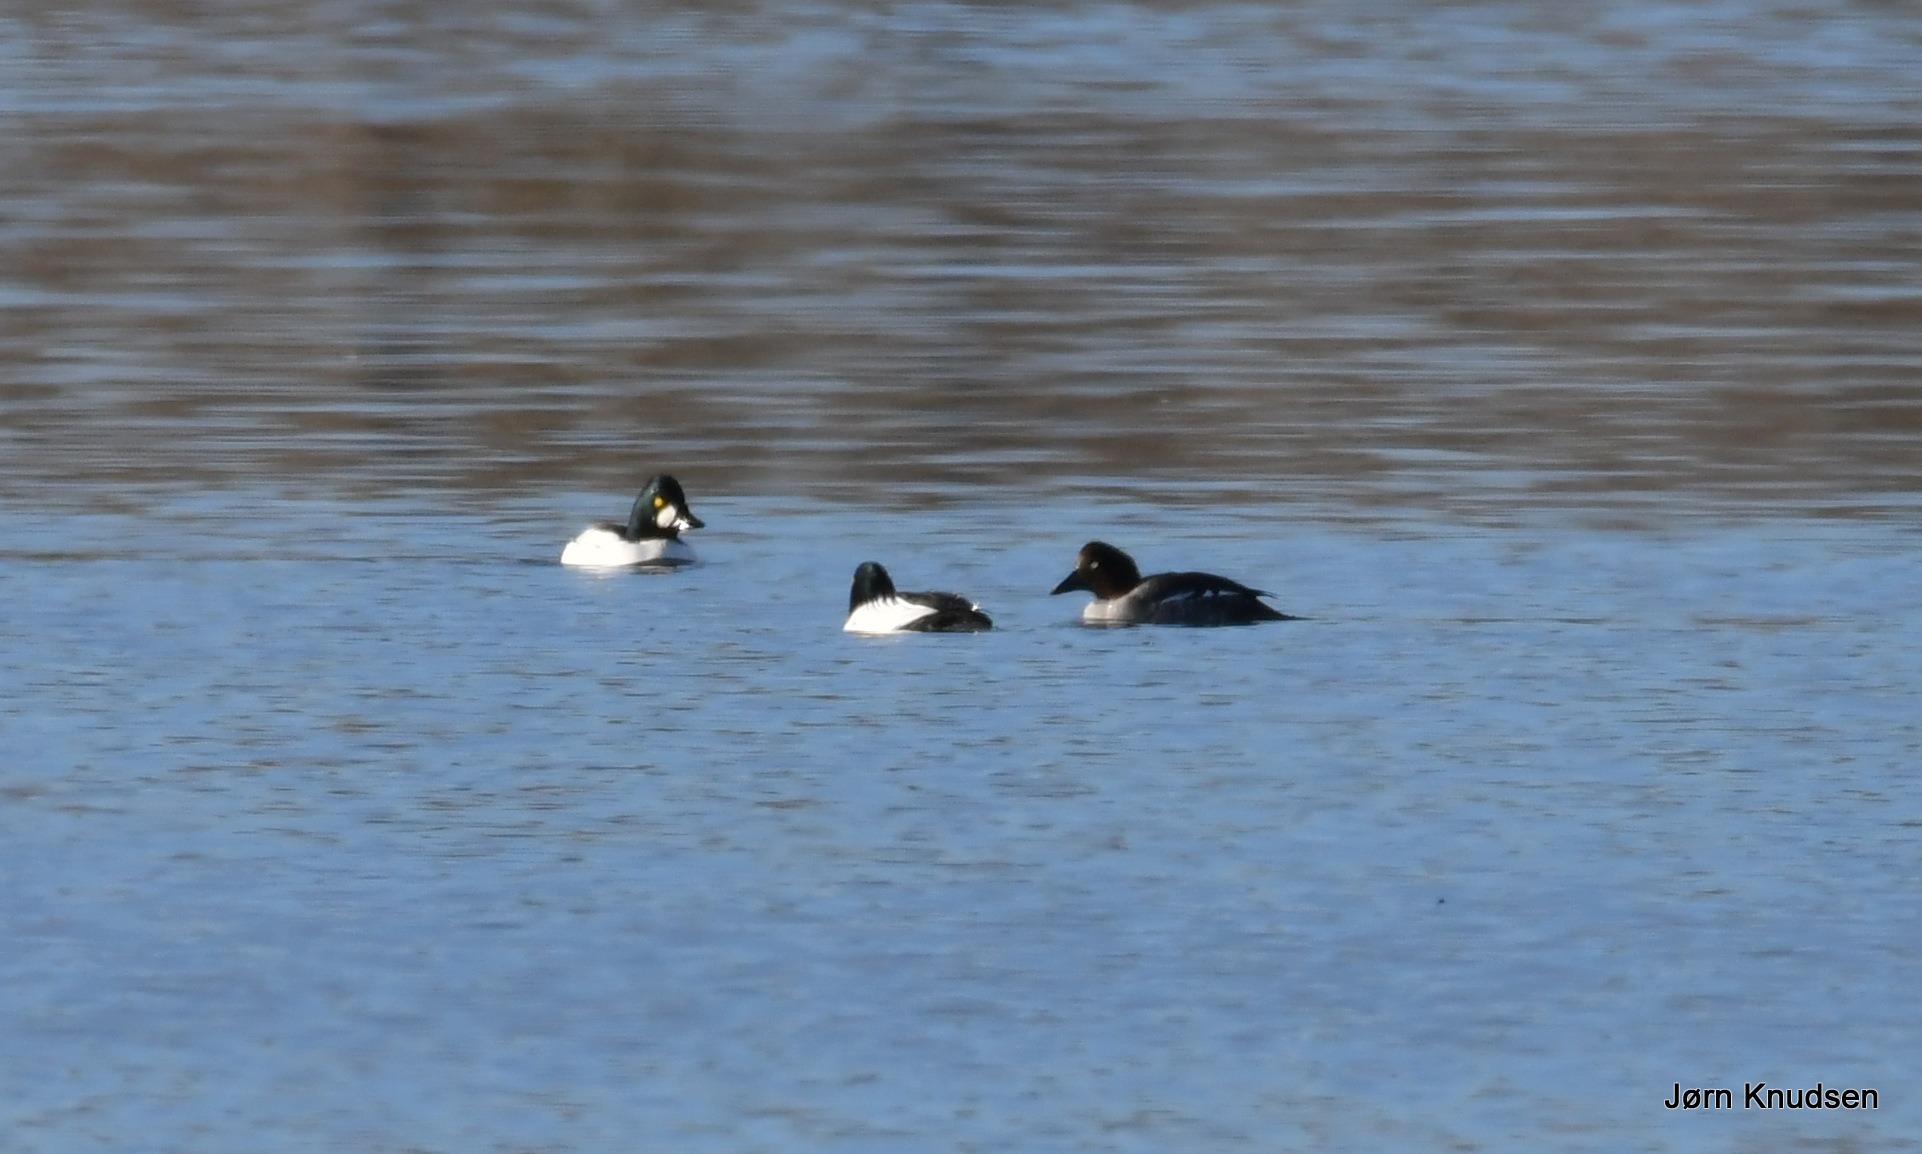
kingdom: Animalia
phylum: Chordata
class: Aves
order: Anseriformes
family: Anatidae
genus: Bucephala
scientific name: Bucephala clangula
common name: Hvinand
